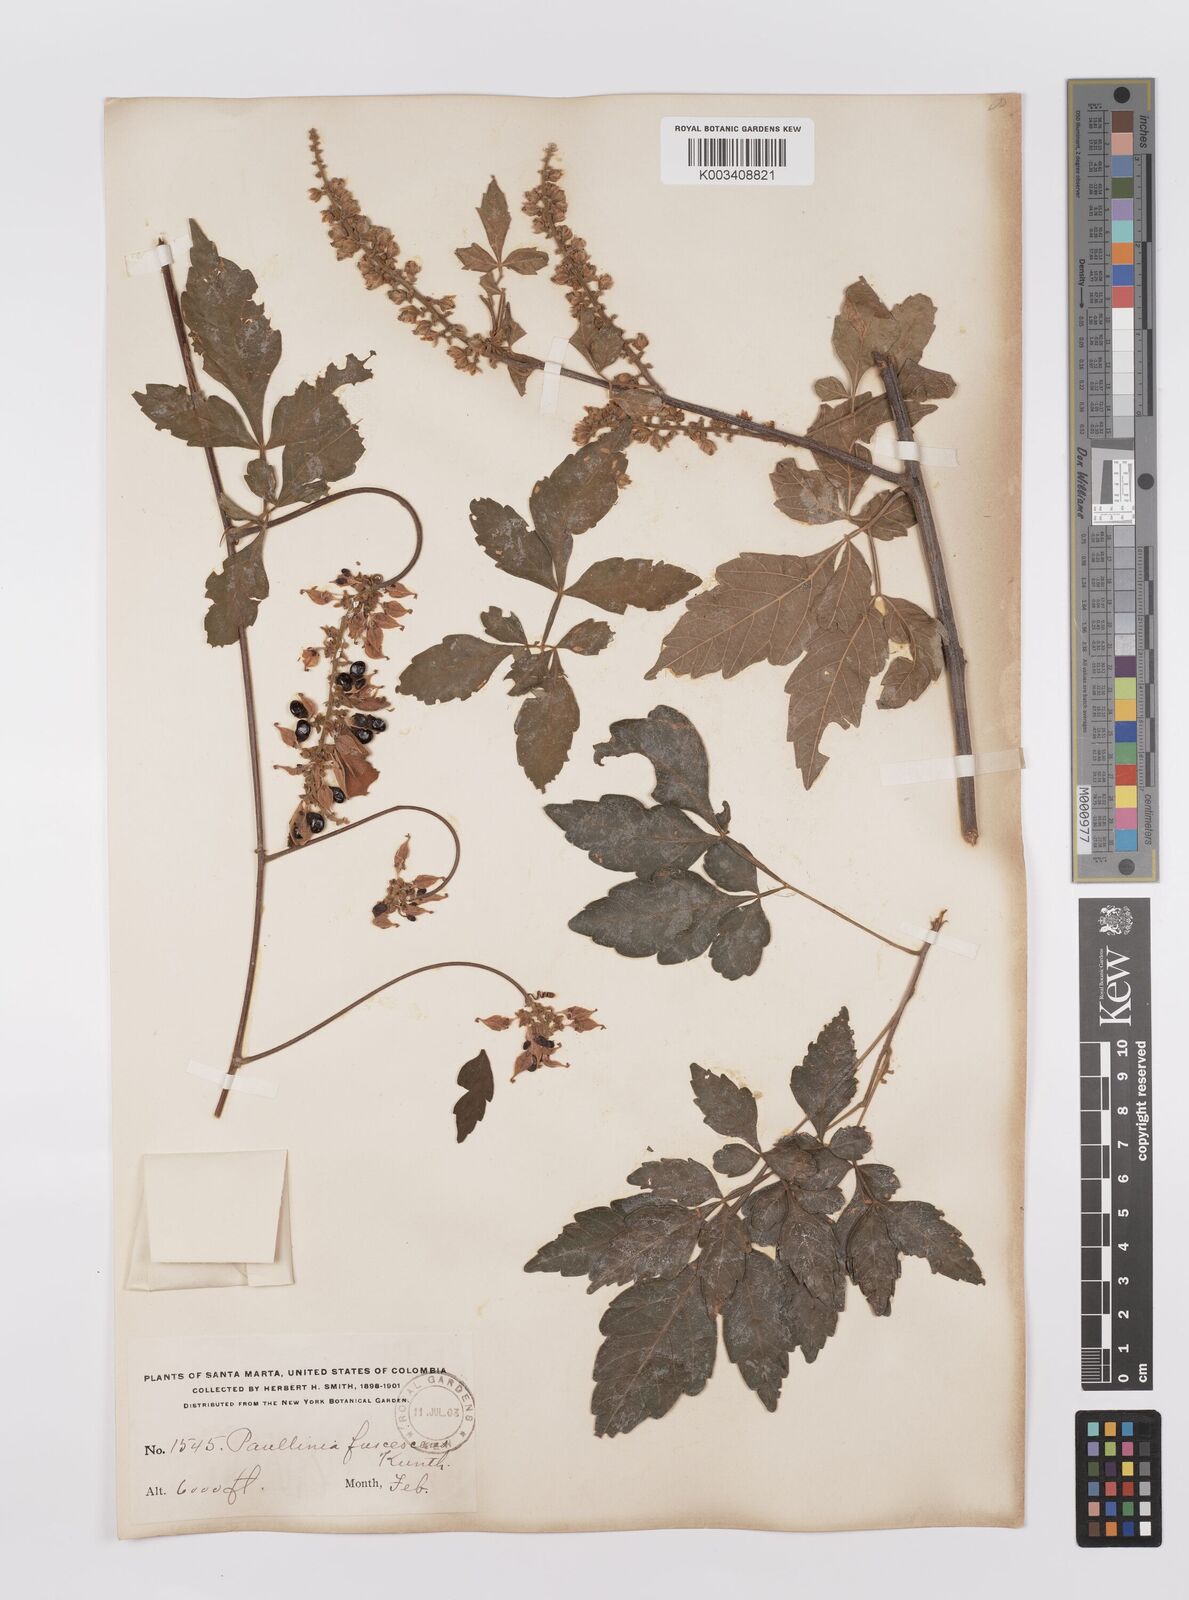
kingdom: Plantae
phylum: Tracheophyta
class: Magnoliopsida
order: Sapindales
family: Sapindaceae
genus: Paullinia
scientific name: Paullinia fuscescens
